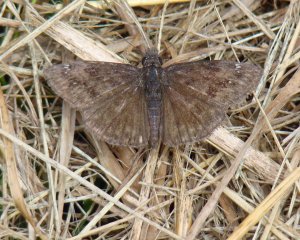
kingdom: Animalia
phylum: Arthropoda
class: Insecta
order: Lepidoptera
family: Hesperiidae
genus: Gesta
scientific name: Gesta
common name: Wild Indigo Duskywing
